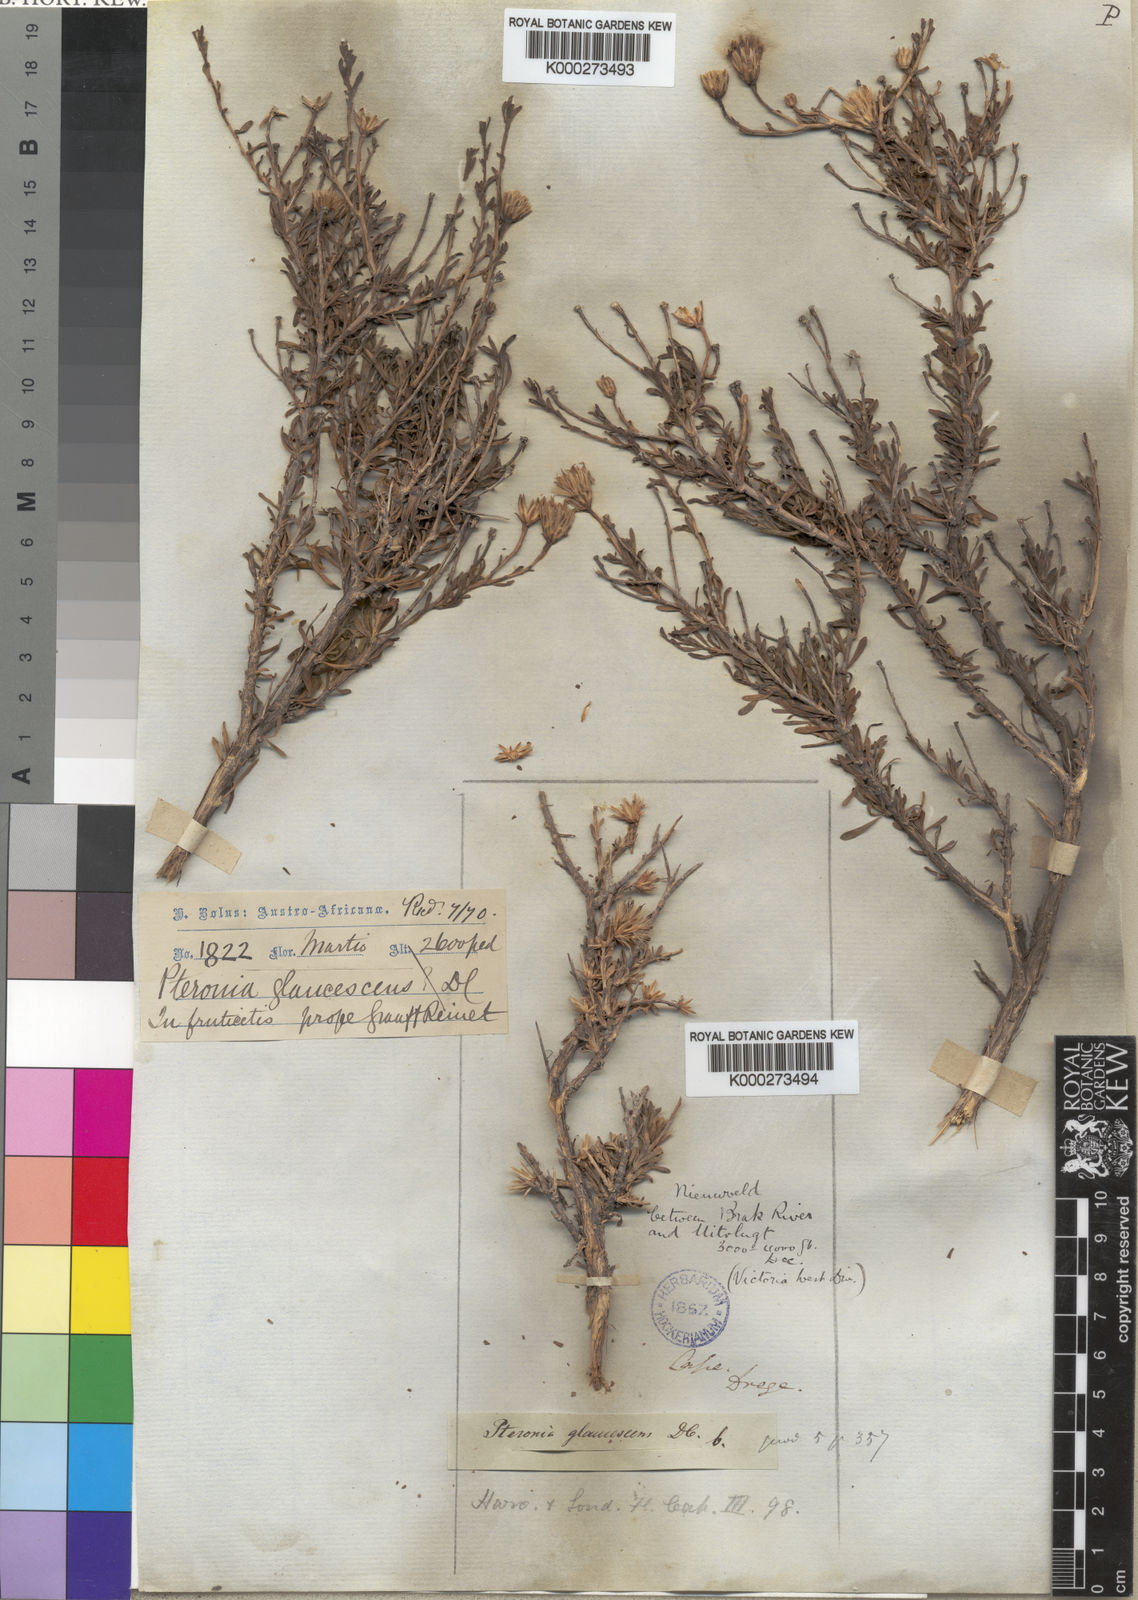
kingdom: Plantae
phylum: Tracheophyta
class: Magnoliopsida
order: Asterales
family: Asteraceae
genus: Pteronia
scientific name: Pteronia glaucescens
